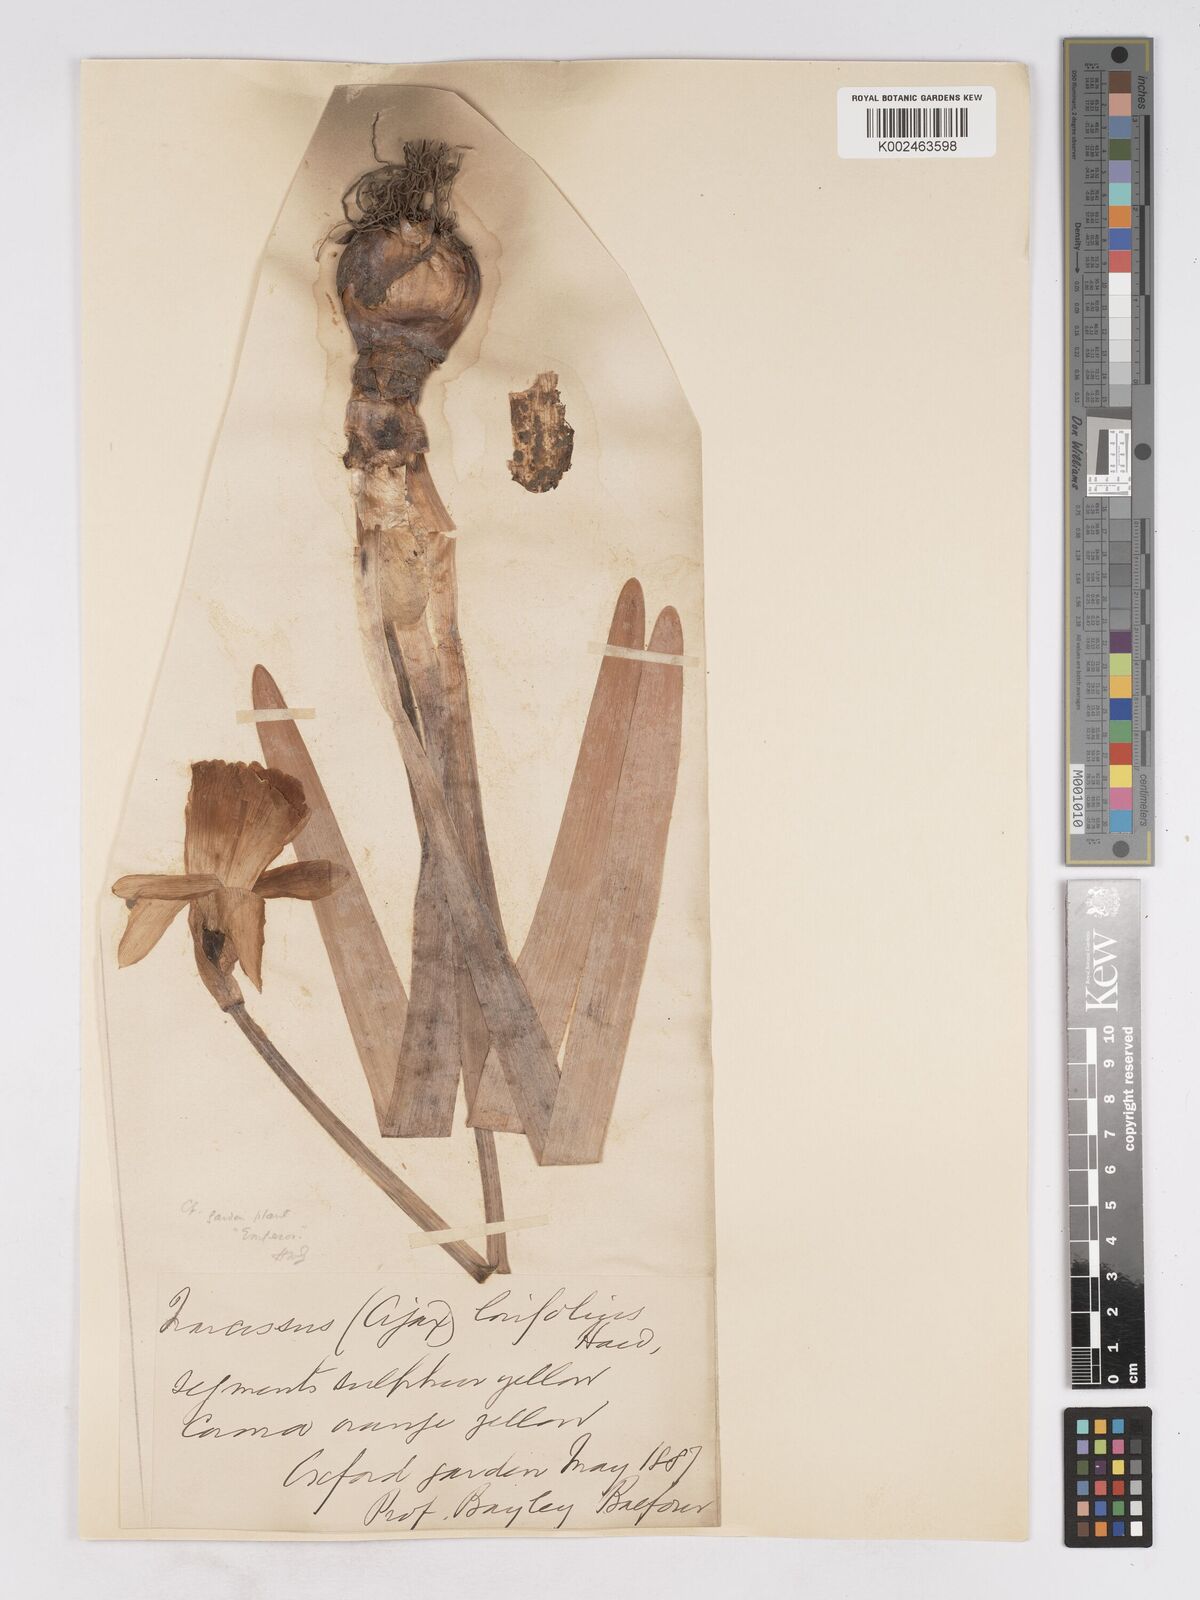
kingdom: Plantae
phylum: Tracheophyta
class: Liliopsida
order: Asparagales
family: Amaryllidaceae
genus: Narcissus
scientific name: Narcissus bicolor
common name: Two-color daffodil
